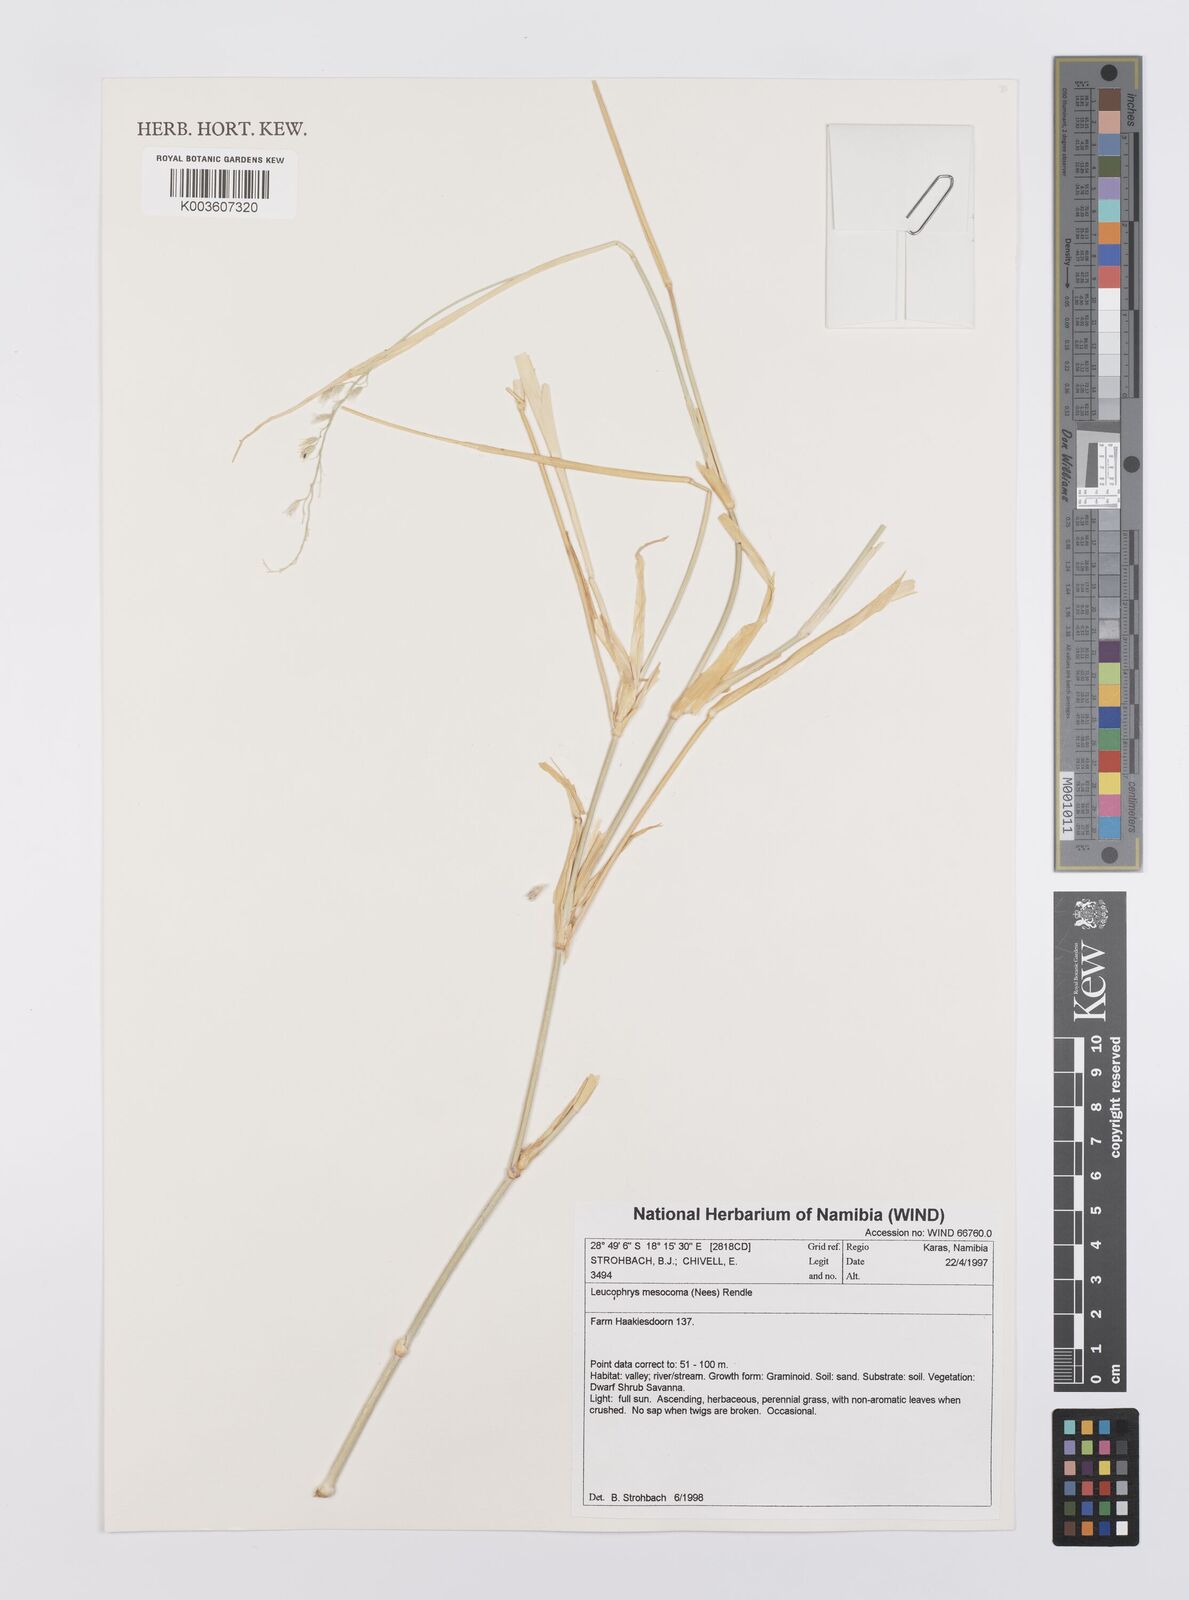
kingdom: Plantae
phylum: Tracheophyta
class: Liliopsida
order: Poales
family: Poaceae
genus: Urochloa
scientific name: Urochloa Brachiaria mesocoma
